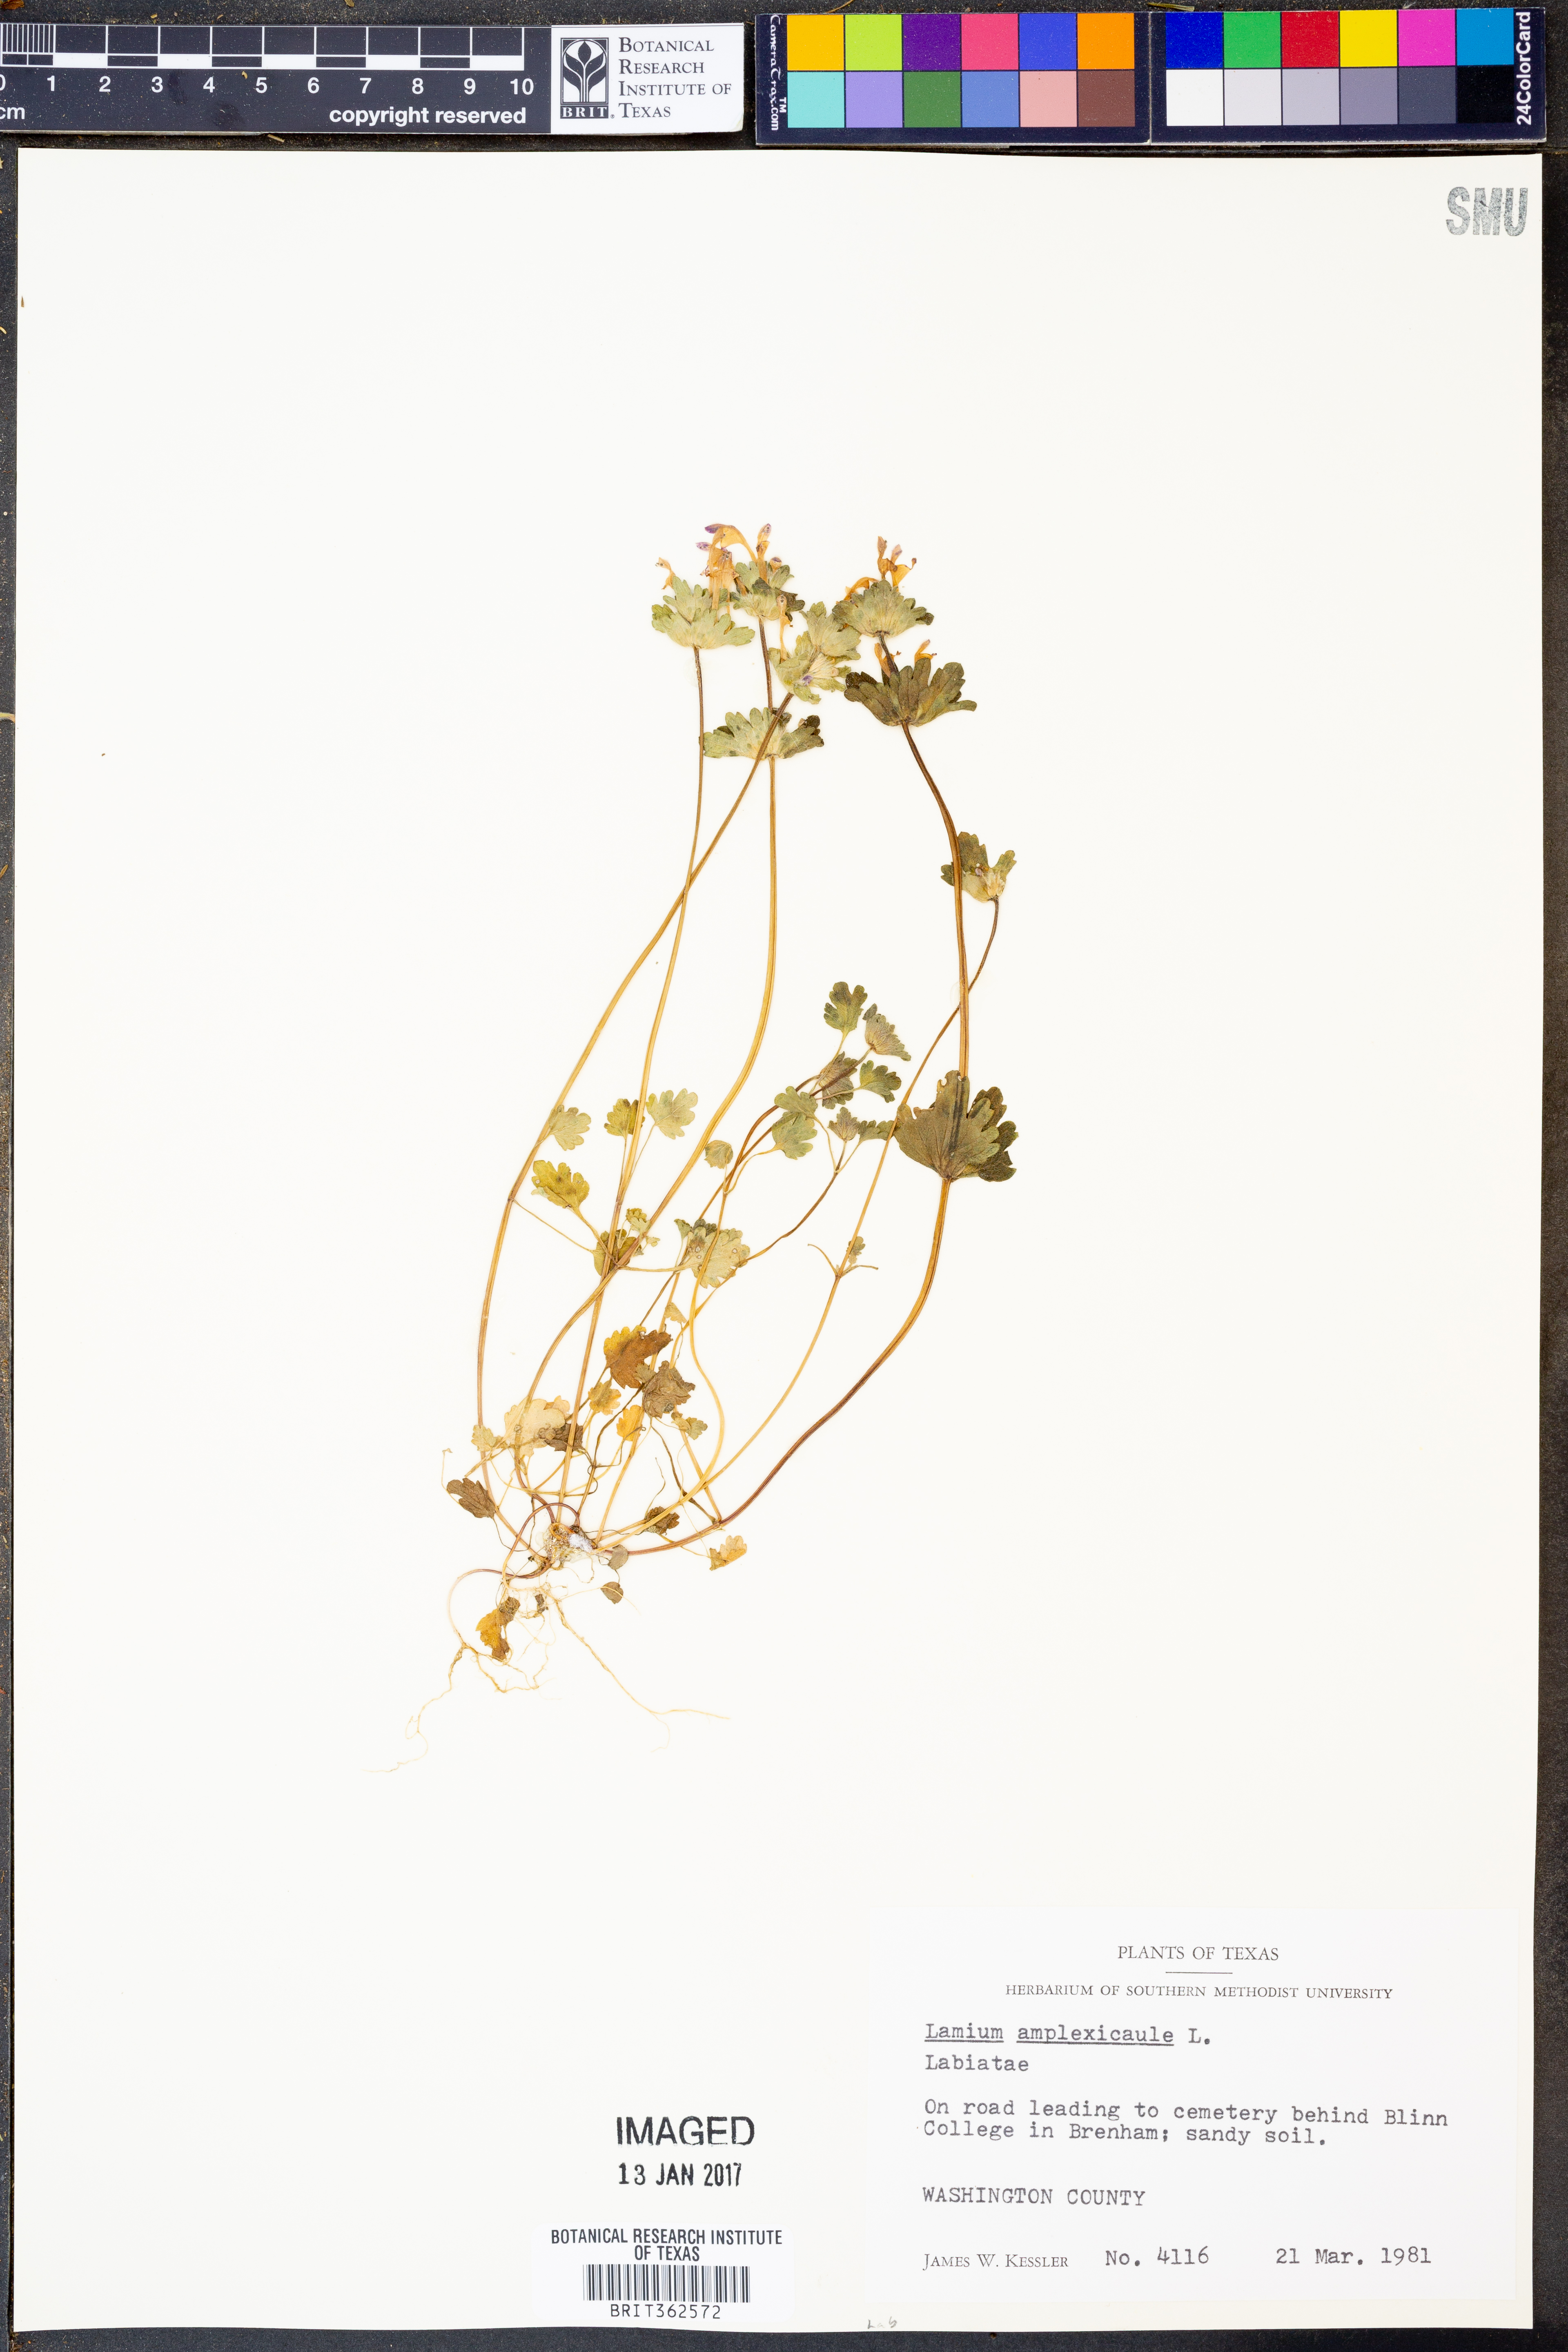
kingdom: Plantae
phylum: Tracheophyta
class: Magnoliopsida
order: Lamiales
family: Lamiaceae
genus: Lamium
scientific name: Lamium amplexicaule
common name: Henbit dead-nettle
